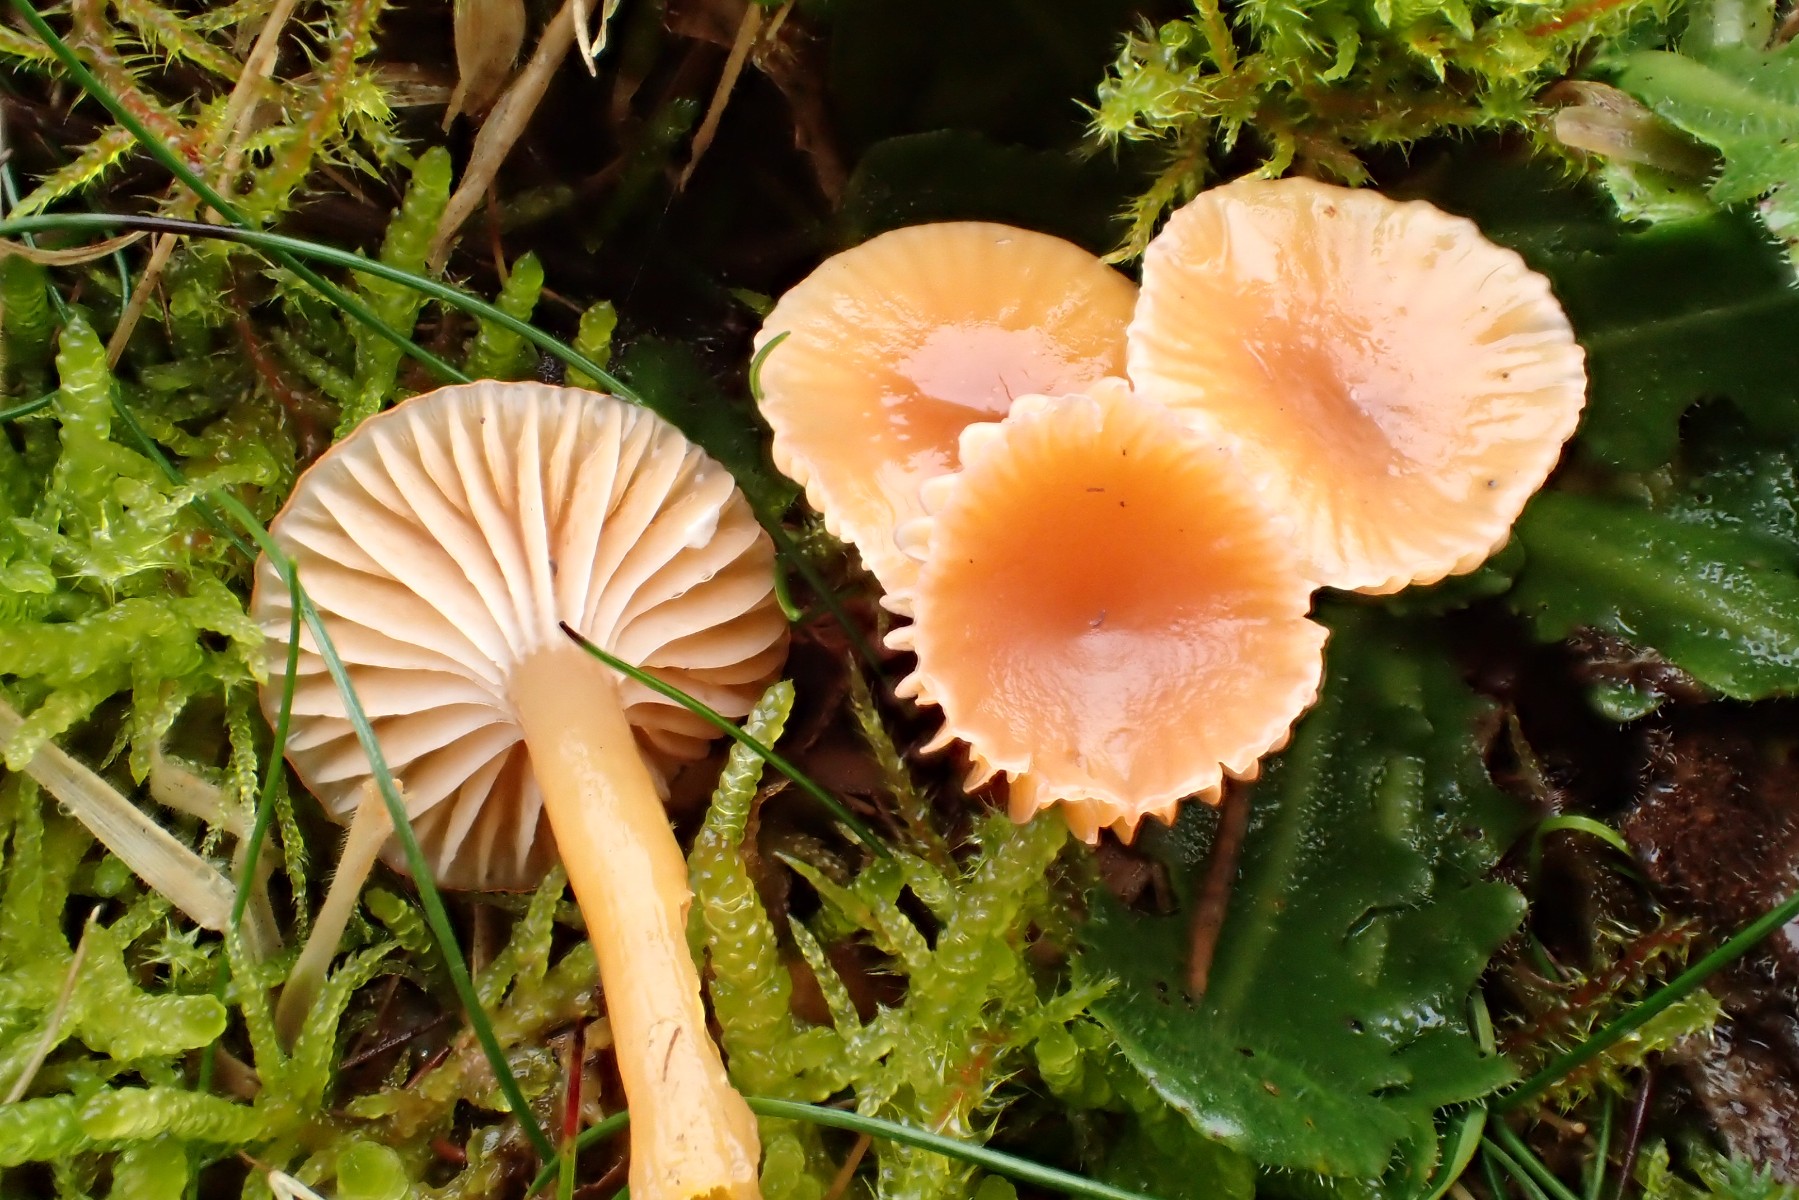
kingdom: Fungi
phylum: Basidiomycota
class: Agaricomycetes
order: Agaricales
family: Hygrophoraceae
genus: Gliophorus
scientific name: Gliophorus laetus
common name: brusk-vokshat
